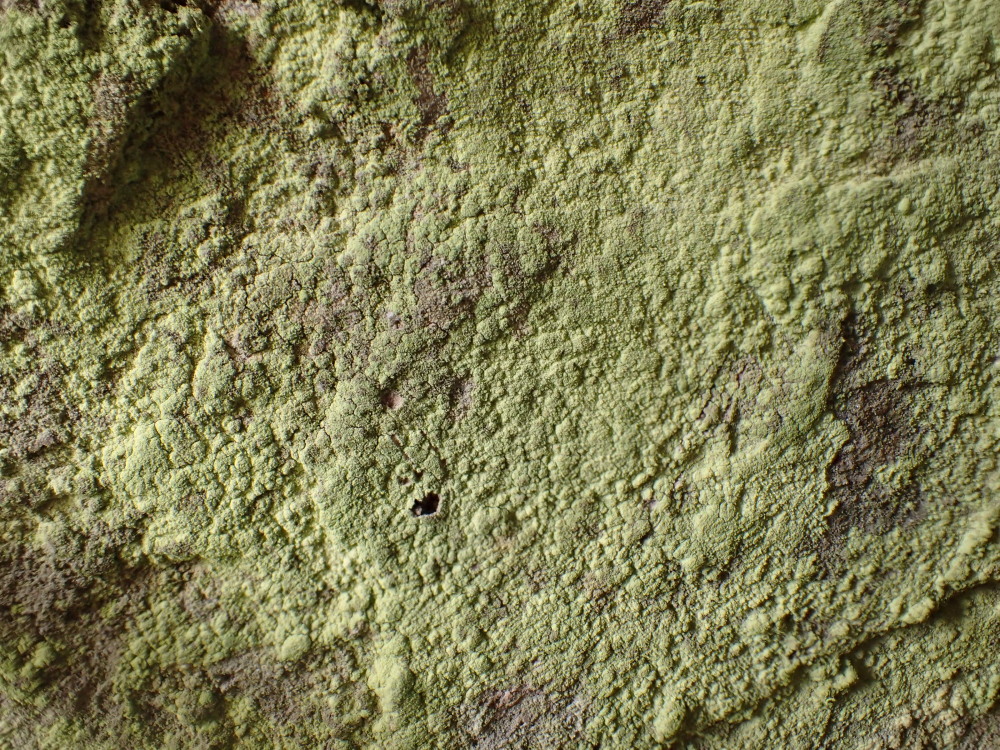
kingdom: Fungi
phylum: Ascomycota
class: Lecanoromycetes
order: Lecanorales
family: Psilolechiaceae
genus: Psilolechia
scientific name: Psilolechia lucida
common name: gul skyggelav
